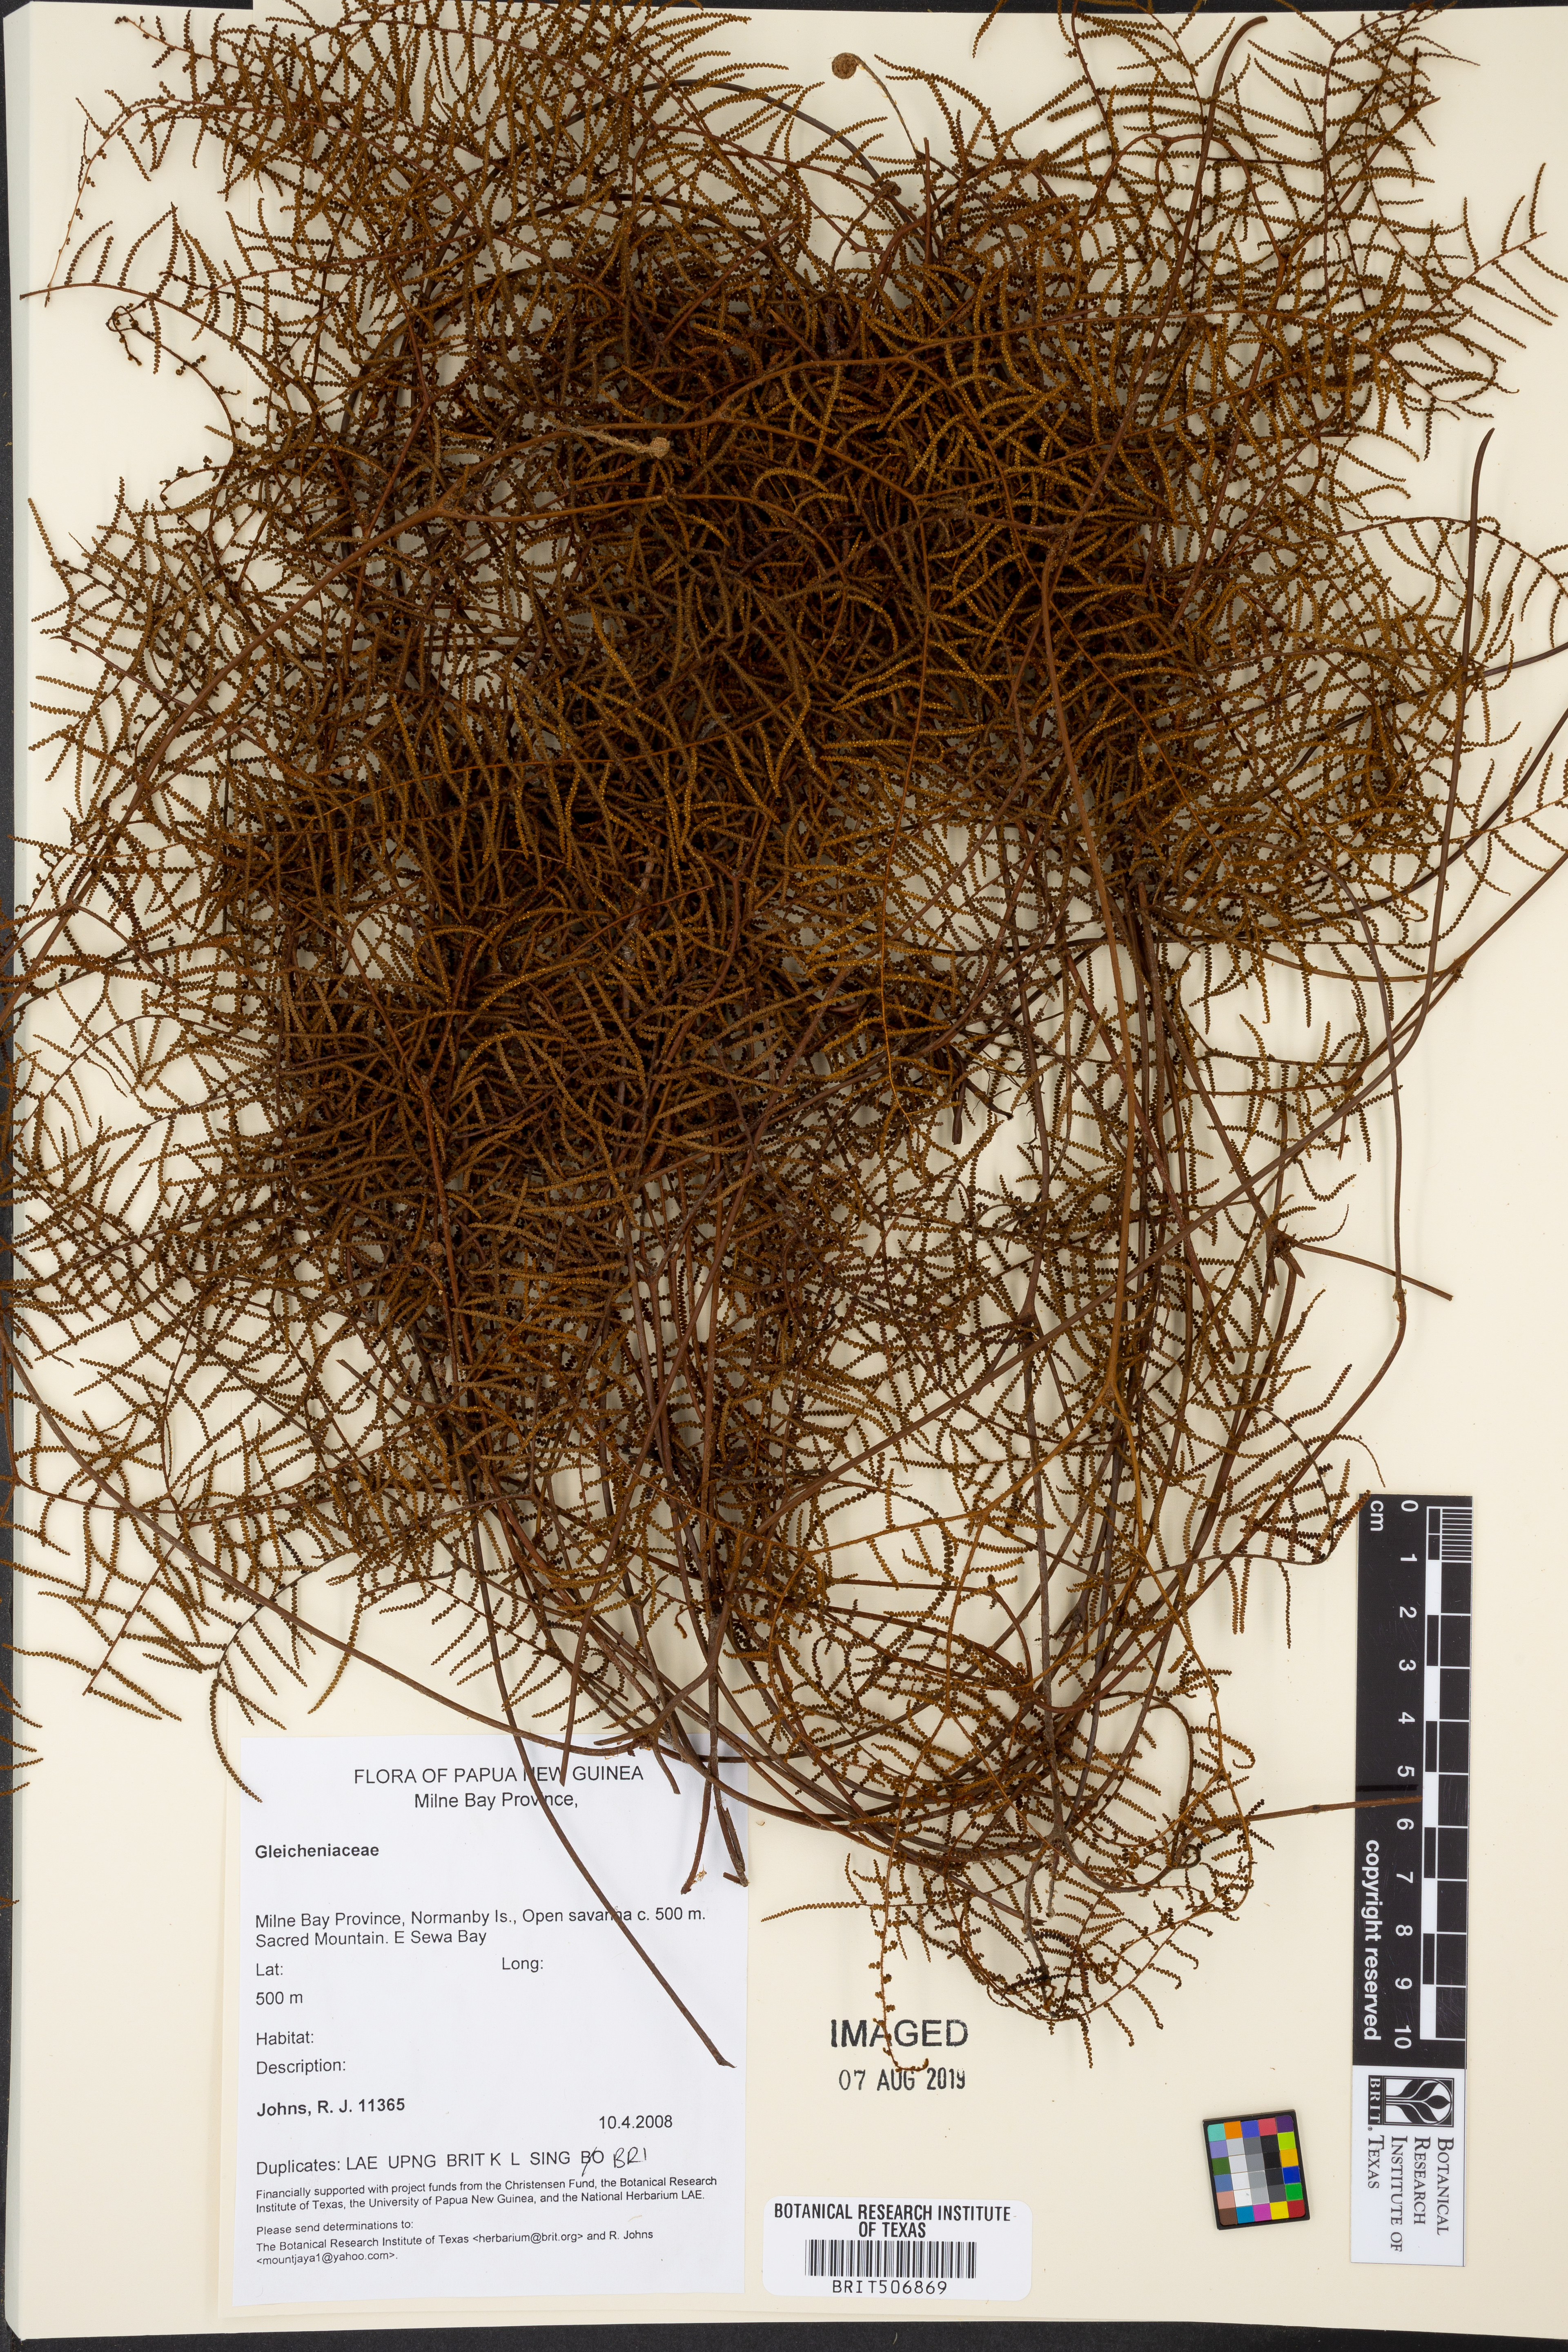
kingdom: Plantae
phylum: Tracheophyta
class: Polypodiopsida
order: Gleicheniales
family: Gleicheniaceae
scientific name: Gleicheniaceae
